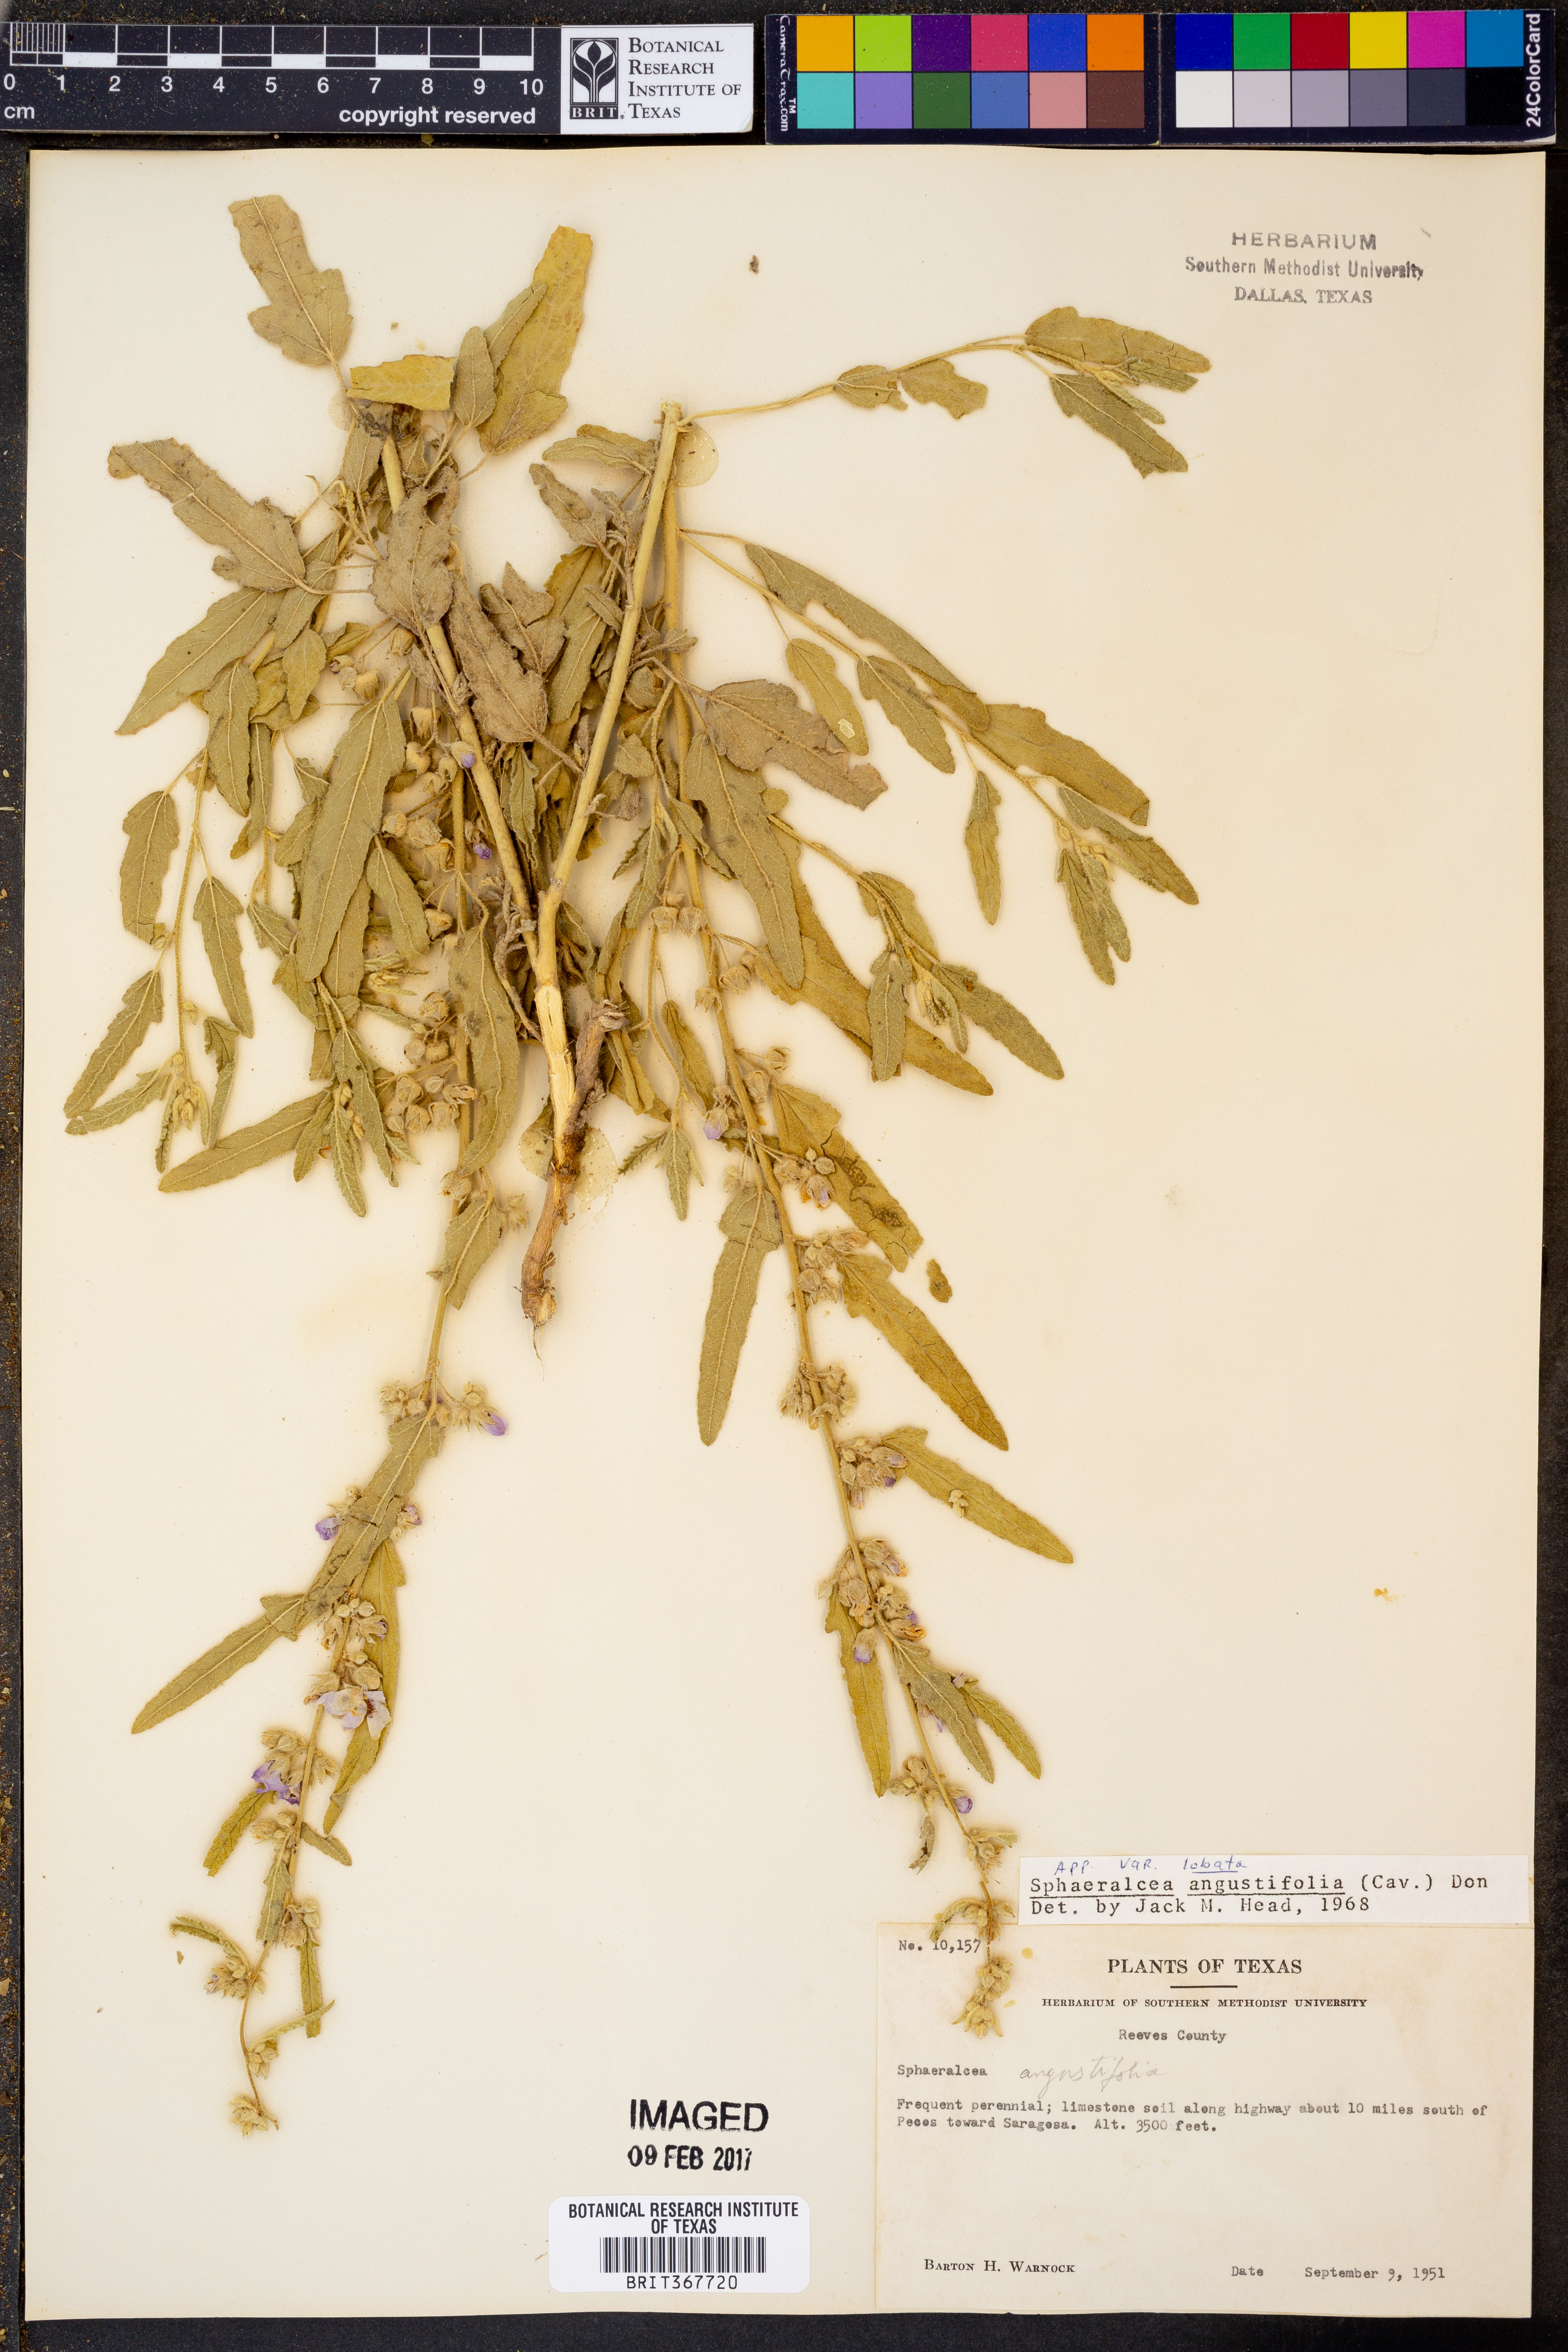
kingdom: Plantae
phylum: Tracheophyta
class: Magnoliopsida
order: Malvales
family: Malvaceae
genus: Sphaeralcea
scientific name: Sphaeralcea angustifolia
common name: Copper globe-mallow
